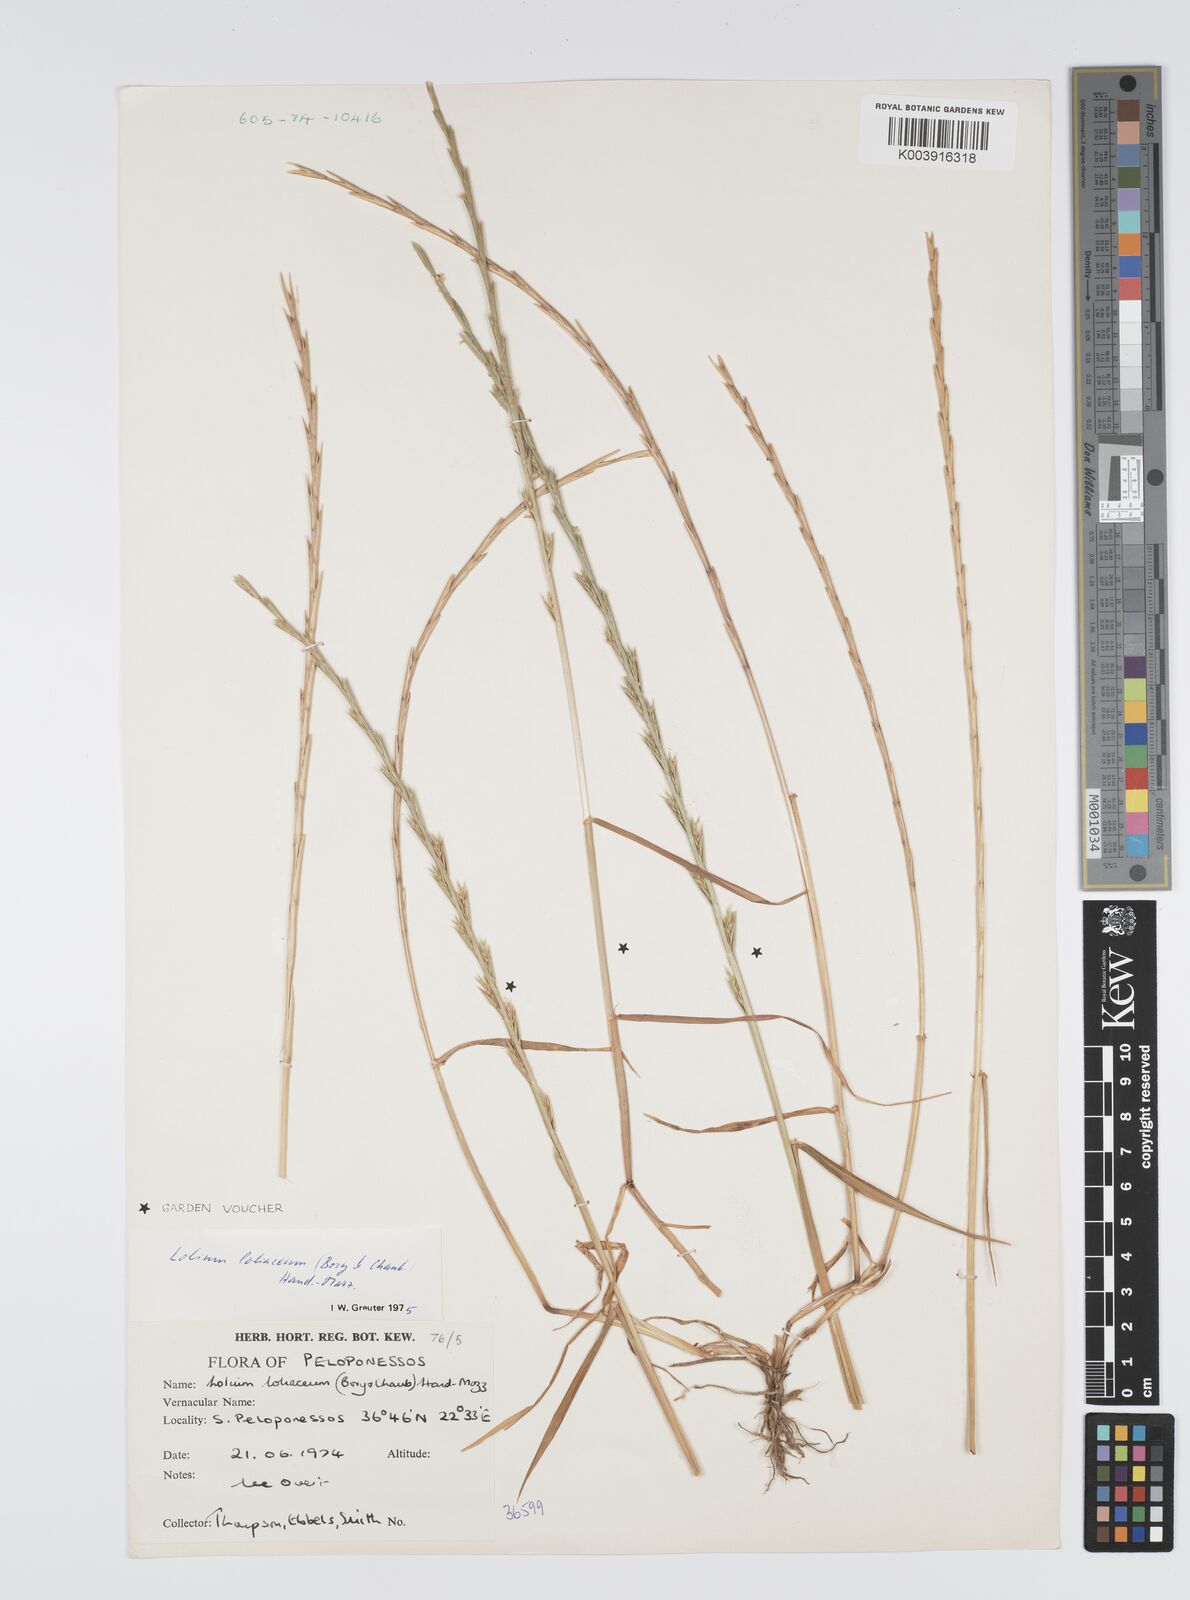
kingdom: Plantae
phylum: Tracheophyta
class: Liliopsida
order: Poales
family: Poaceae
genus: Lolium
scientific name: Lolium rigidum
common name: Wimmera ryegrass
